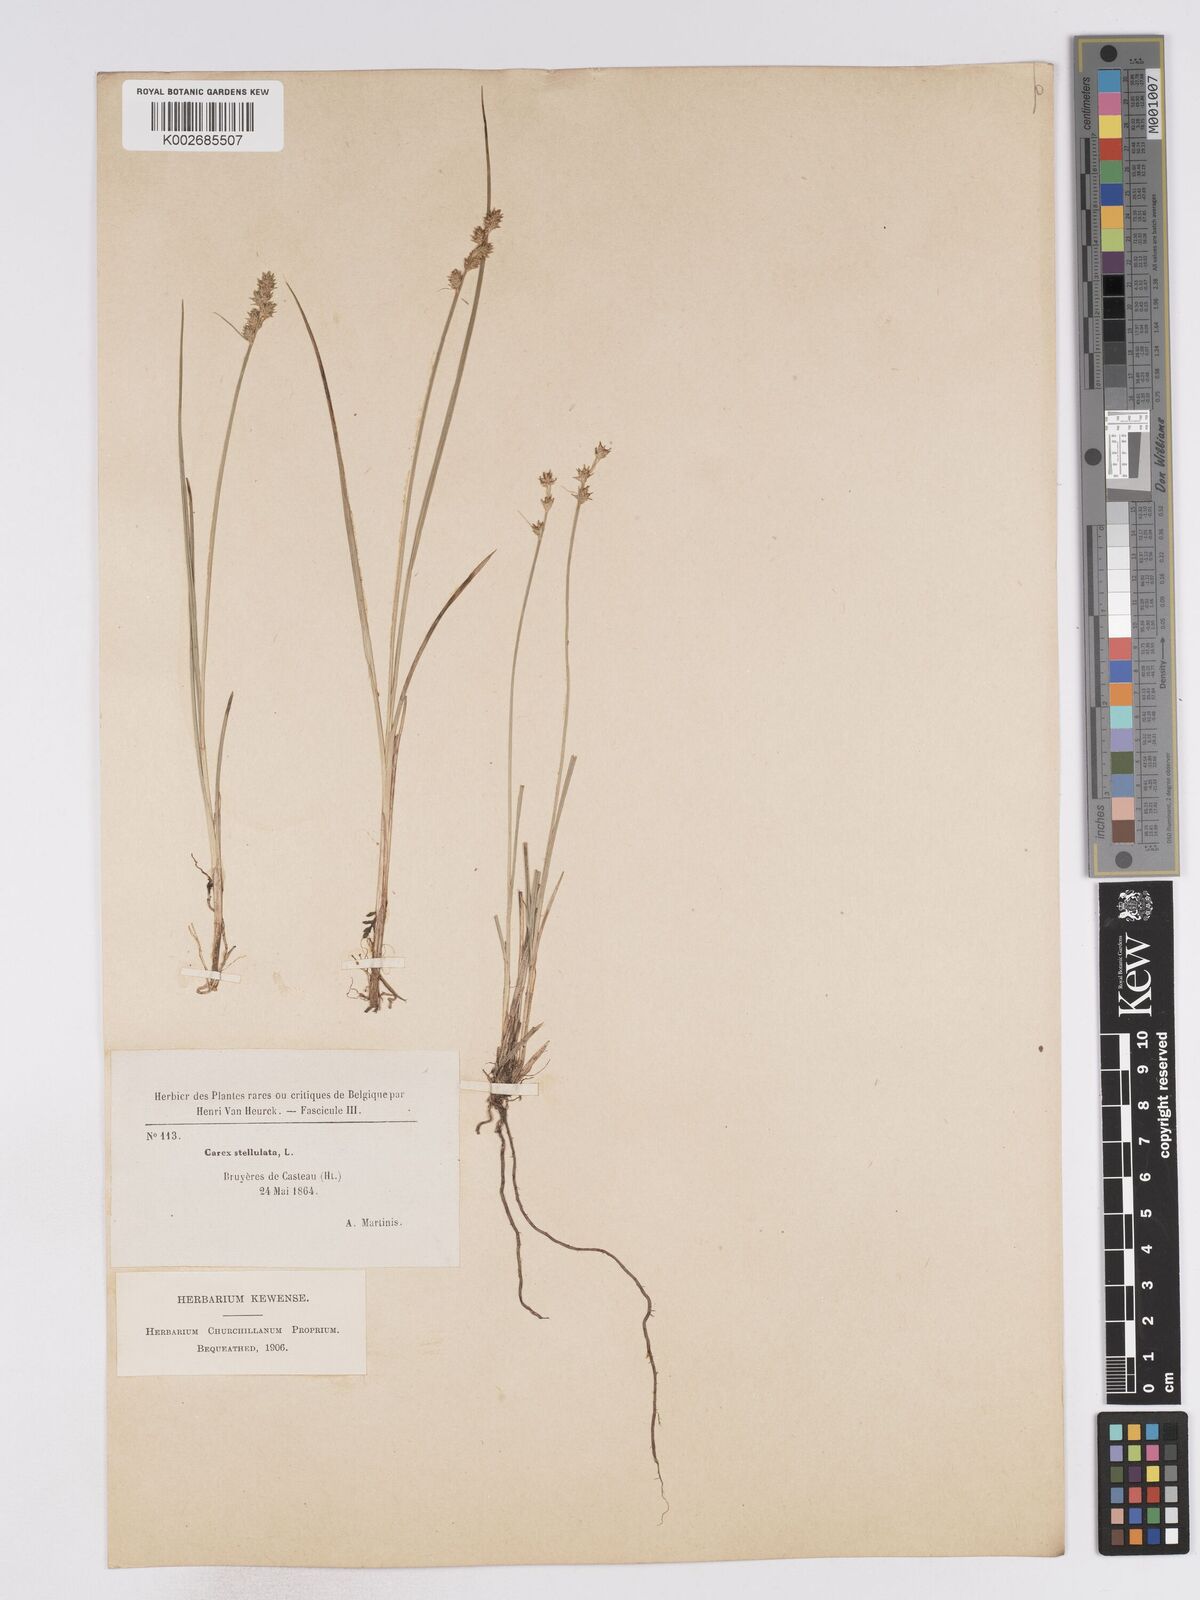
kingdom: Plantae
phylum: Tracheophyta
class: Liliopsida
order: Poales
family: Cyperaceae
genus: Carex
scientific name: Carex echinata
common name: Star sedge
